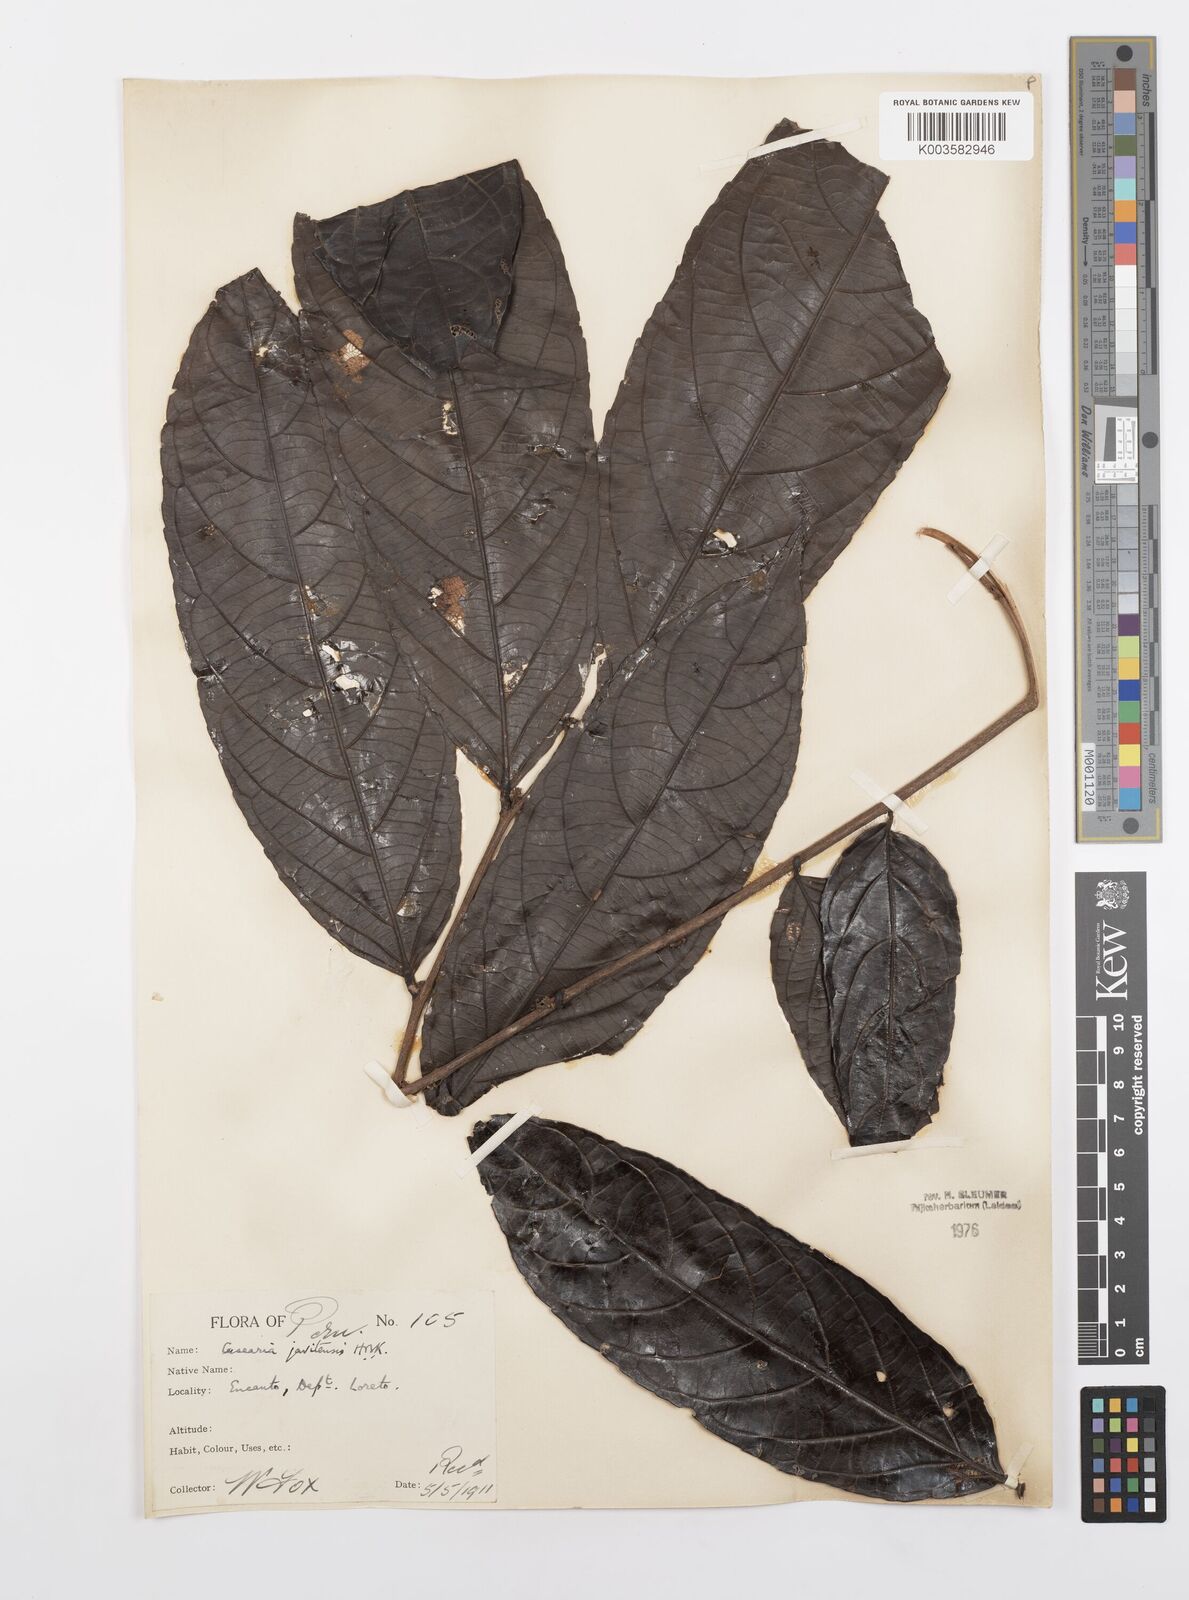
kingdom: Plantae
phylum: Tracheophyta
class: Magnoliopsida
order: Malpighiales
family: Salicaceae
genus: Piparea
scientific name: Piparea multiflora
